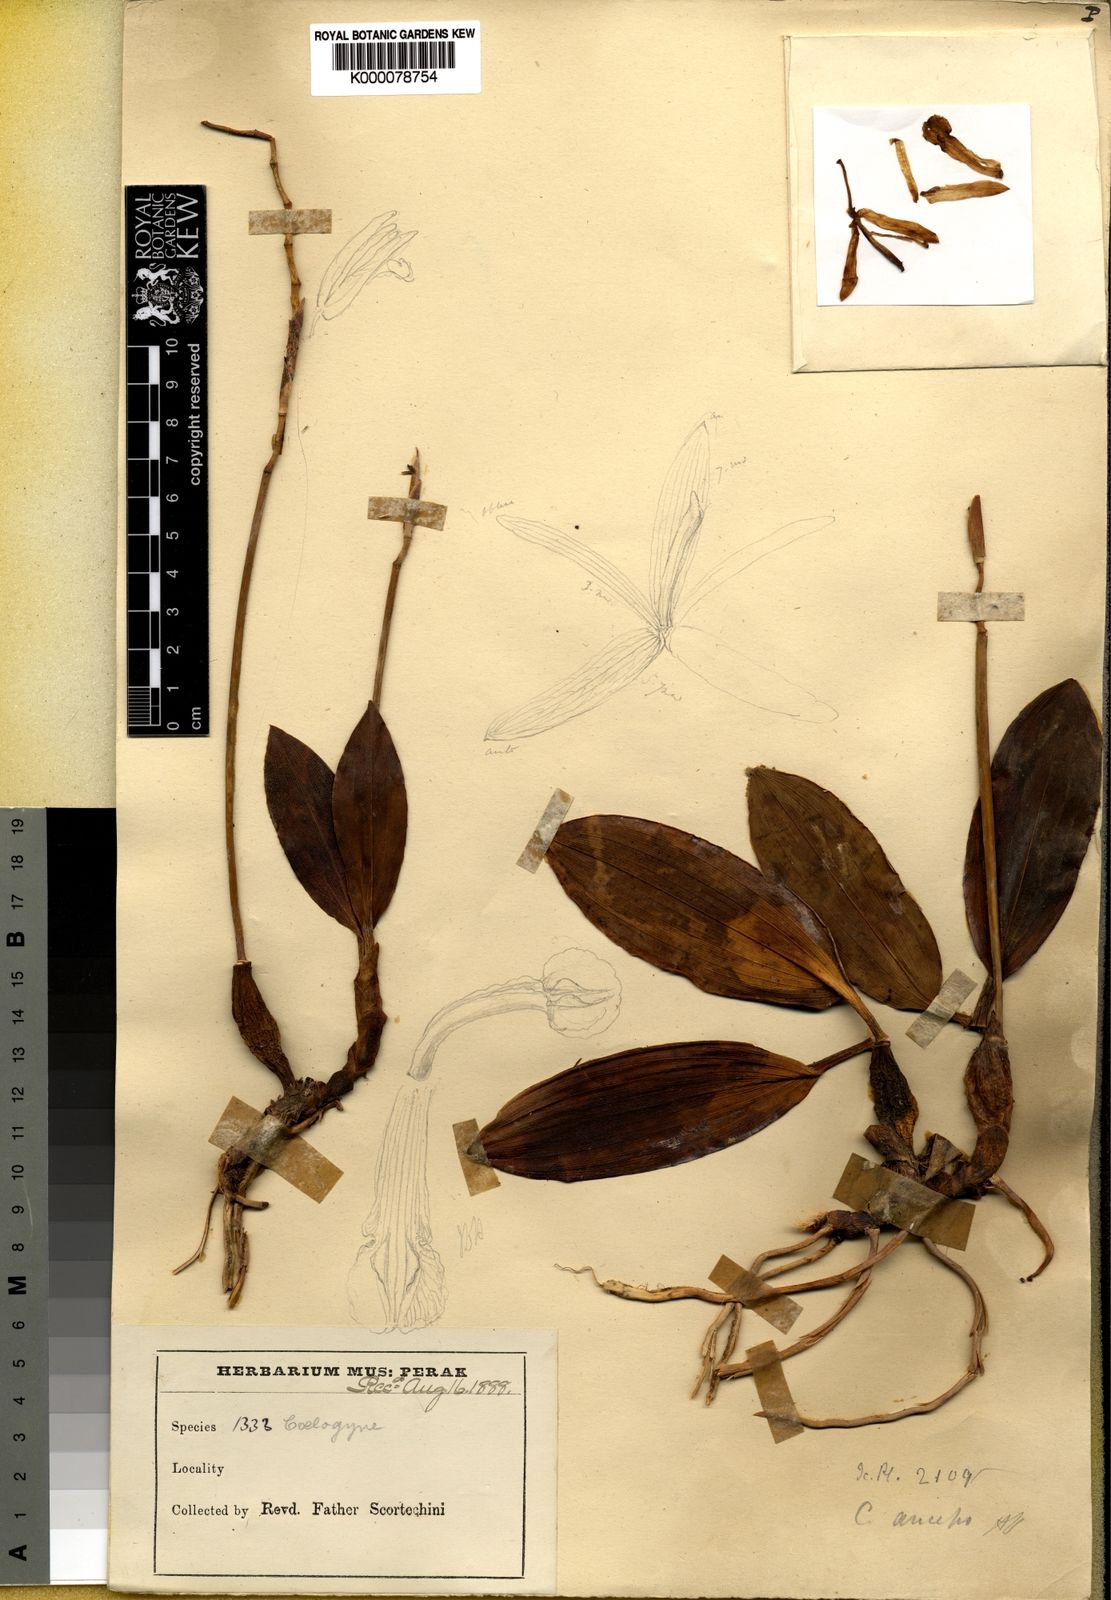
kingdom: Plantae
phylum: Tracheophyta
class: Liliopsida
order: Asparagales
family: Orchidaceae
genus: Coelogyne
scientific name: Coelogyne anceps
